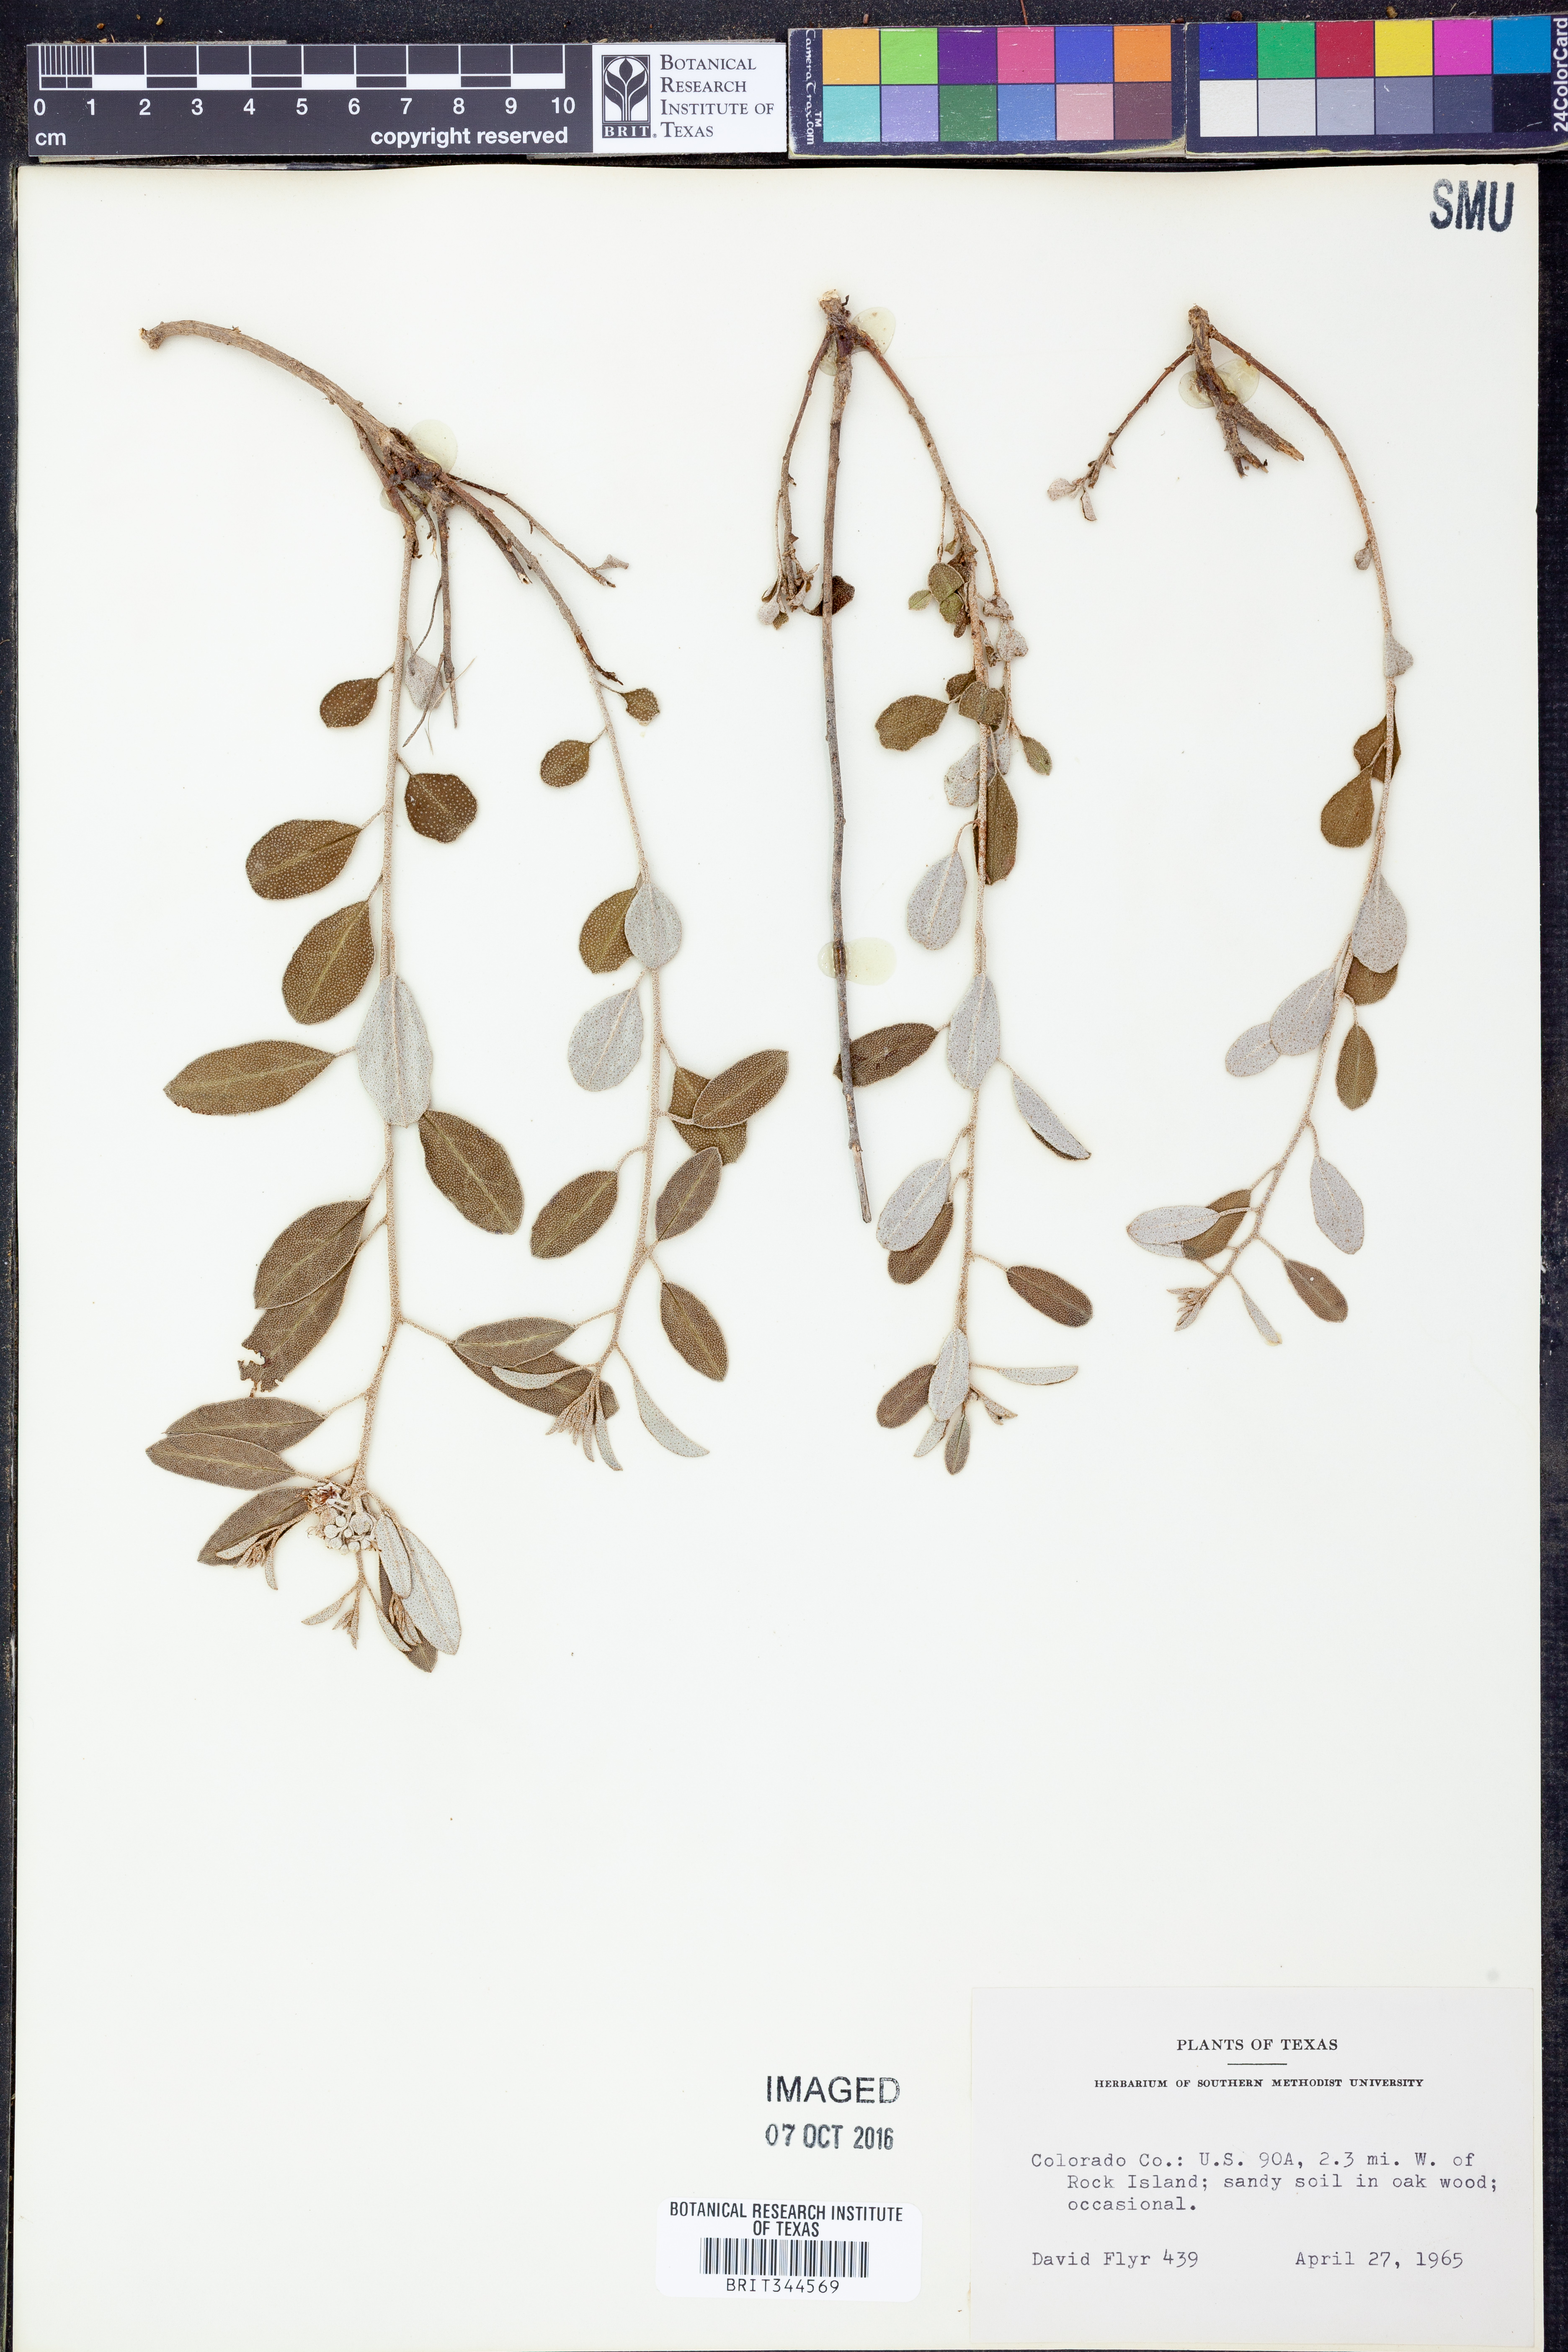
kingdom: Plantae
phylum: Tracheophyta
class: Magnoliopsida
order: Malpighiales
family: Euphorbiaceae
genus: Croton
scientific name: Croton argyranthemus
